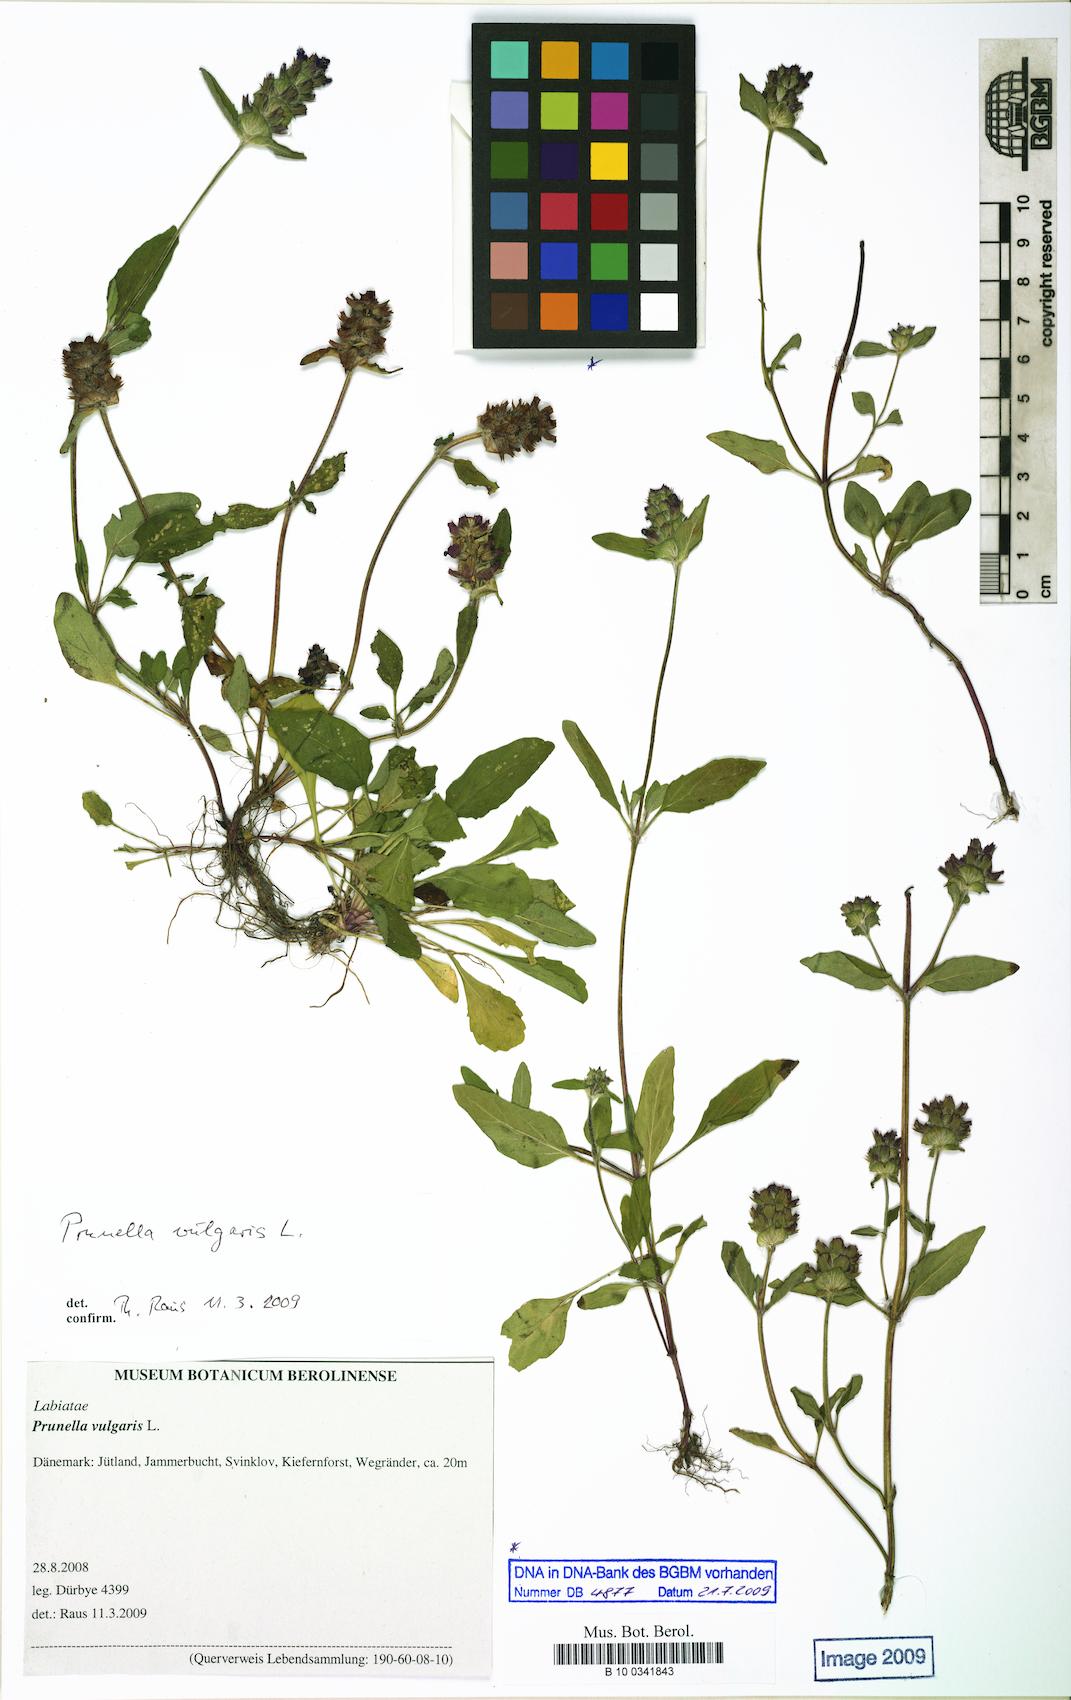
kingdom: Plantae
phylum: Tracheophyta
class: Magnoliopsida
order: Lamiales
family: Lamiaceae
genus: Prunella
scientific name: Prunella vulgaris
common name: Heal-all
